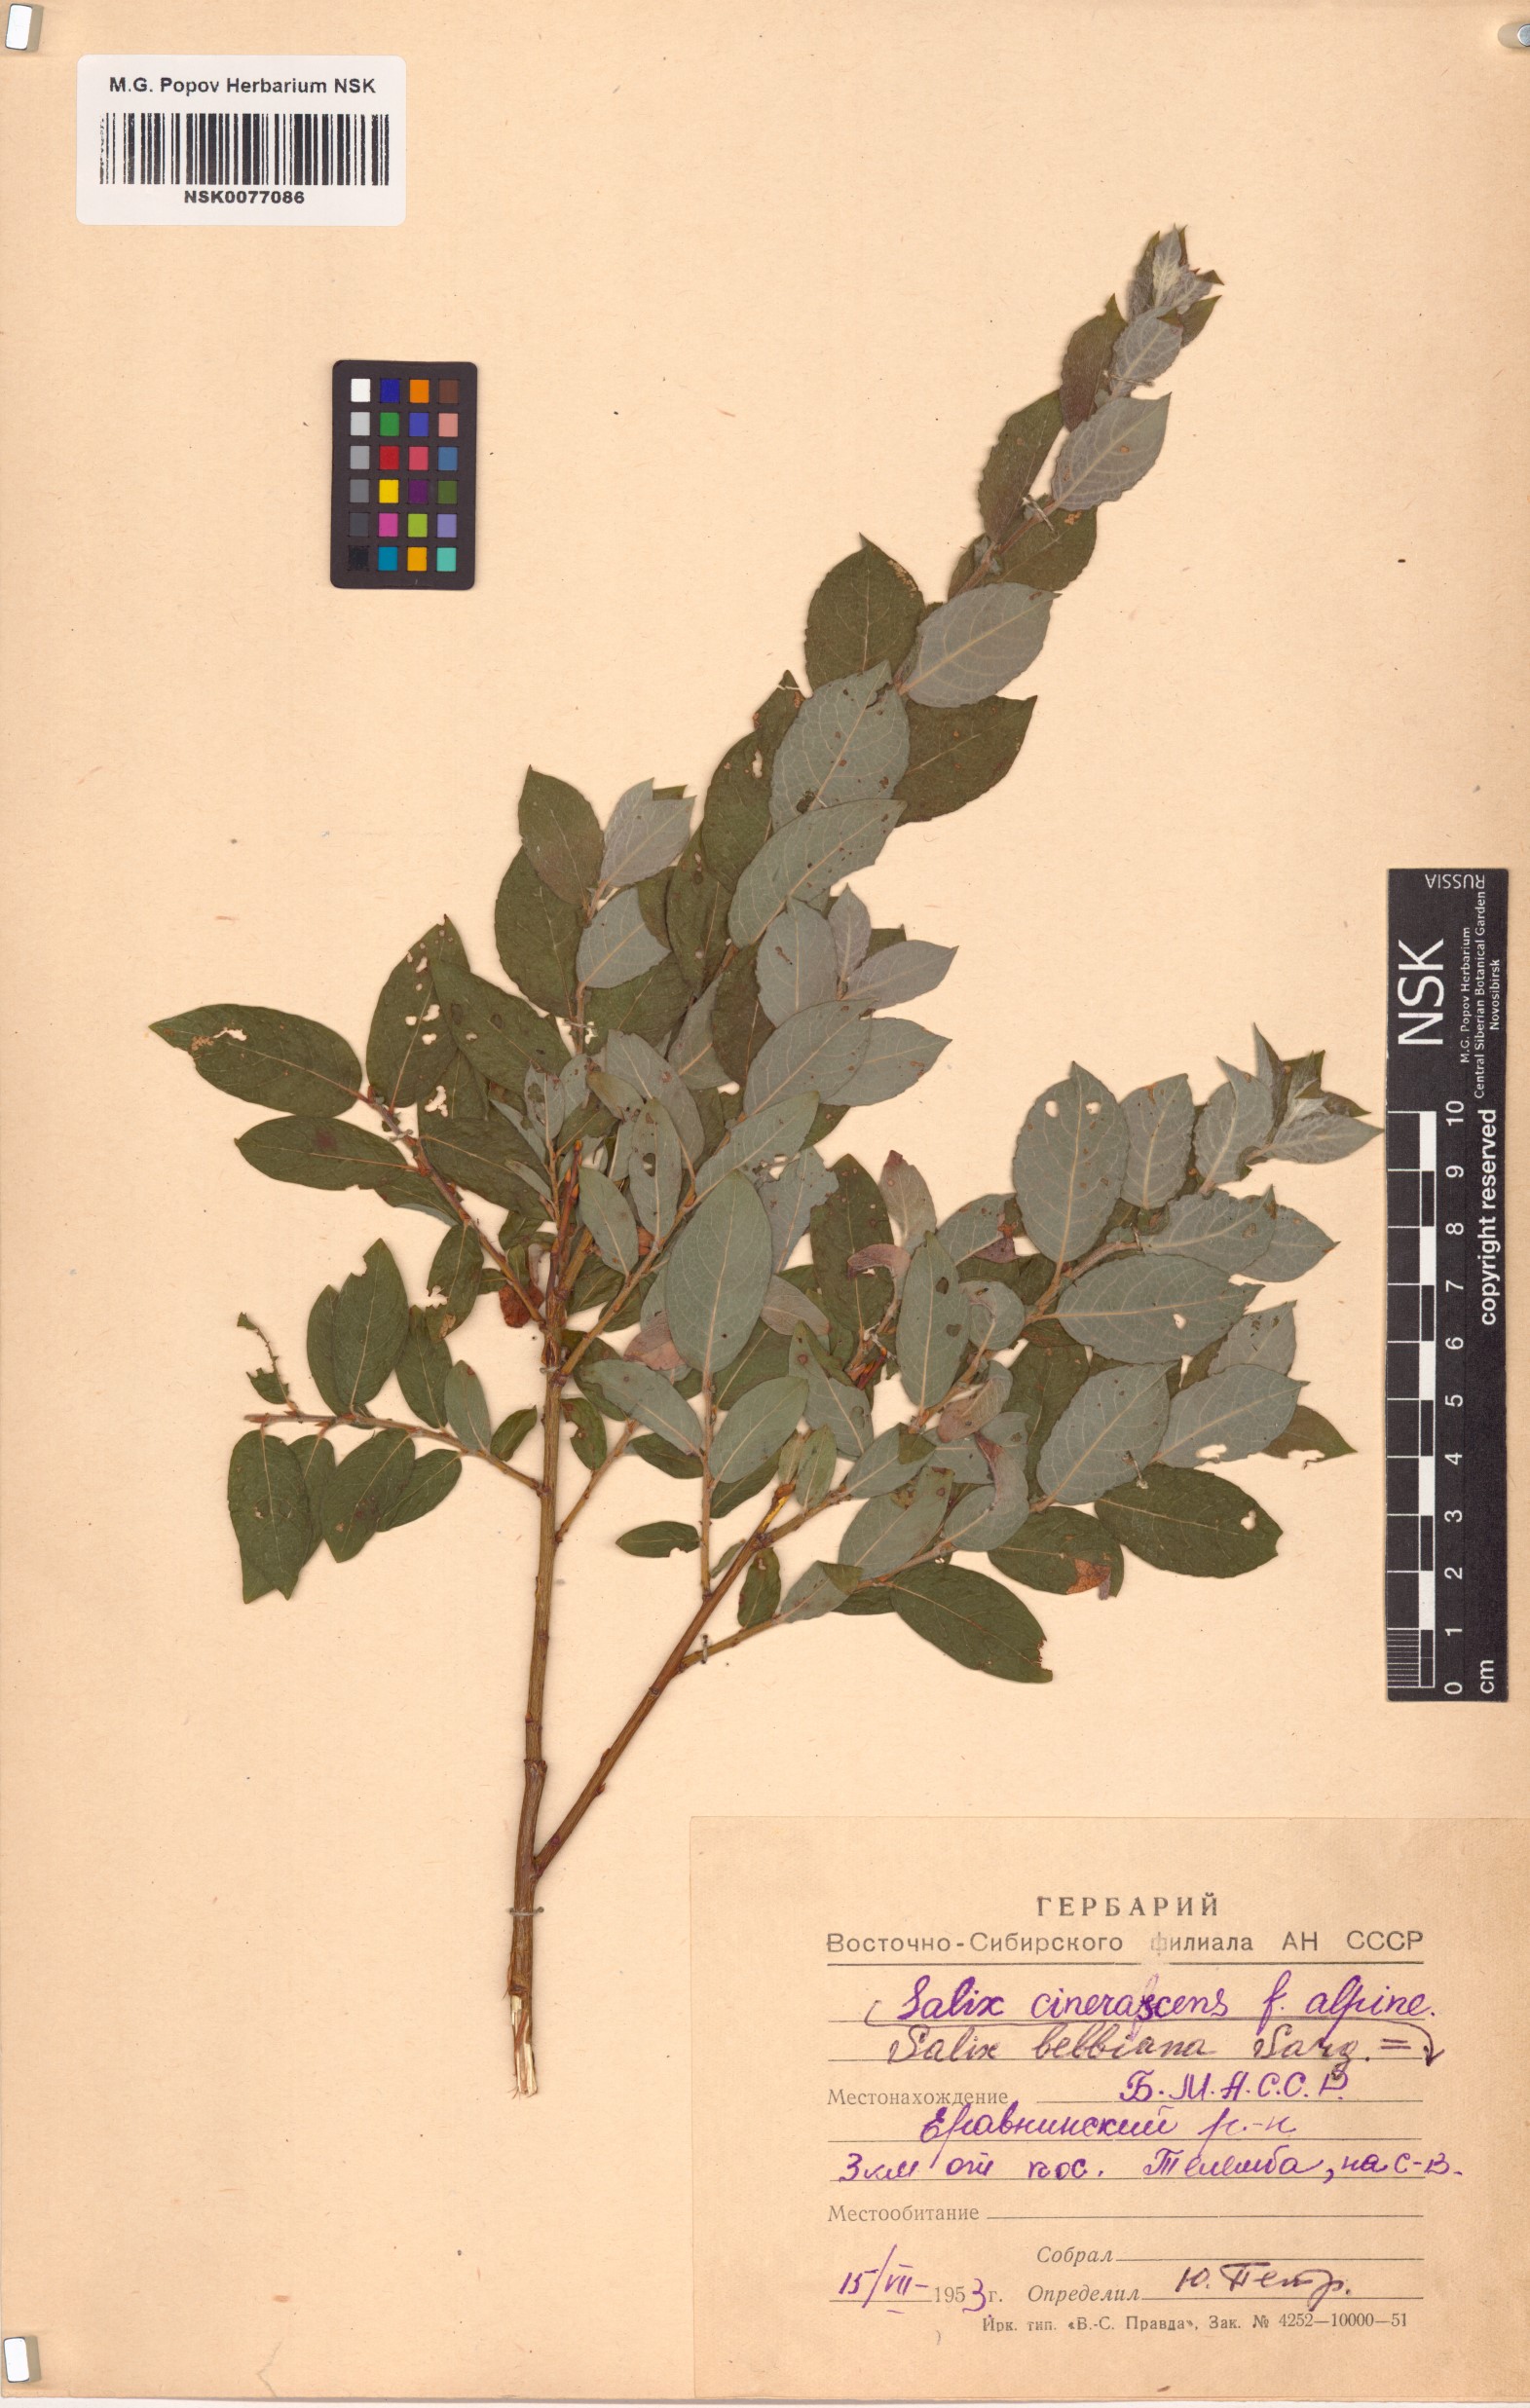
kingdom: Plantae
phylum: Tracheophyta
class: Magnoliopsida
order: Malpighiales
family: Salicaceae
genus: Salix
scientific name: Salix bebbiana
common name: Bebb's willow
